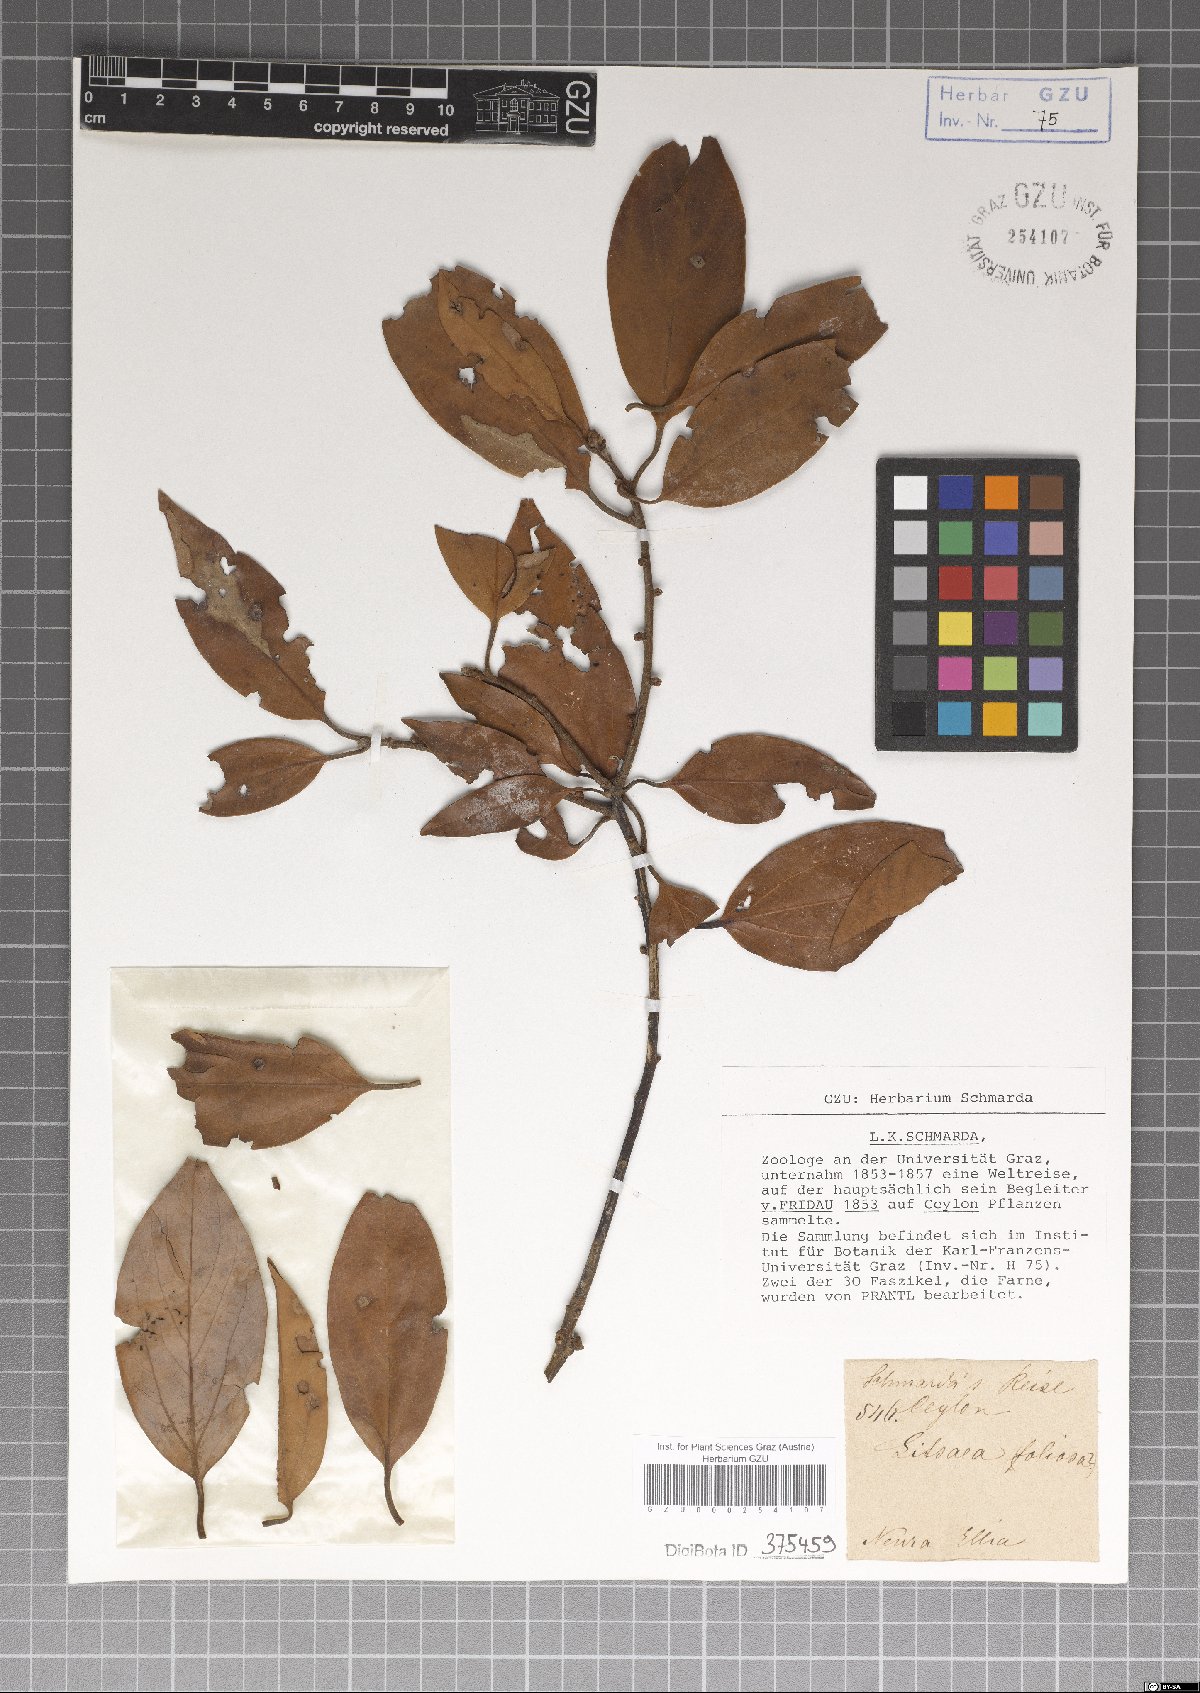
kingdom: Plantae
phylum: Tracheophyta
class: Magnoliopsida
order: Laurales
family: Lauraceae
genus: Neolitsea
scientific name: Neolitsea umbrosa
